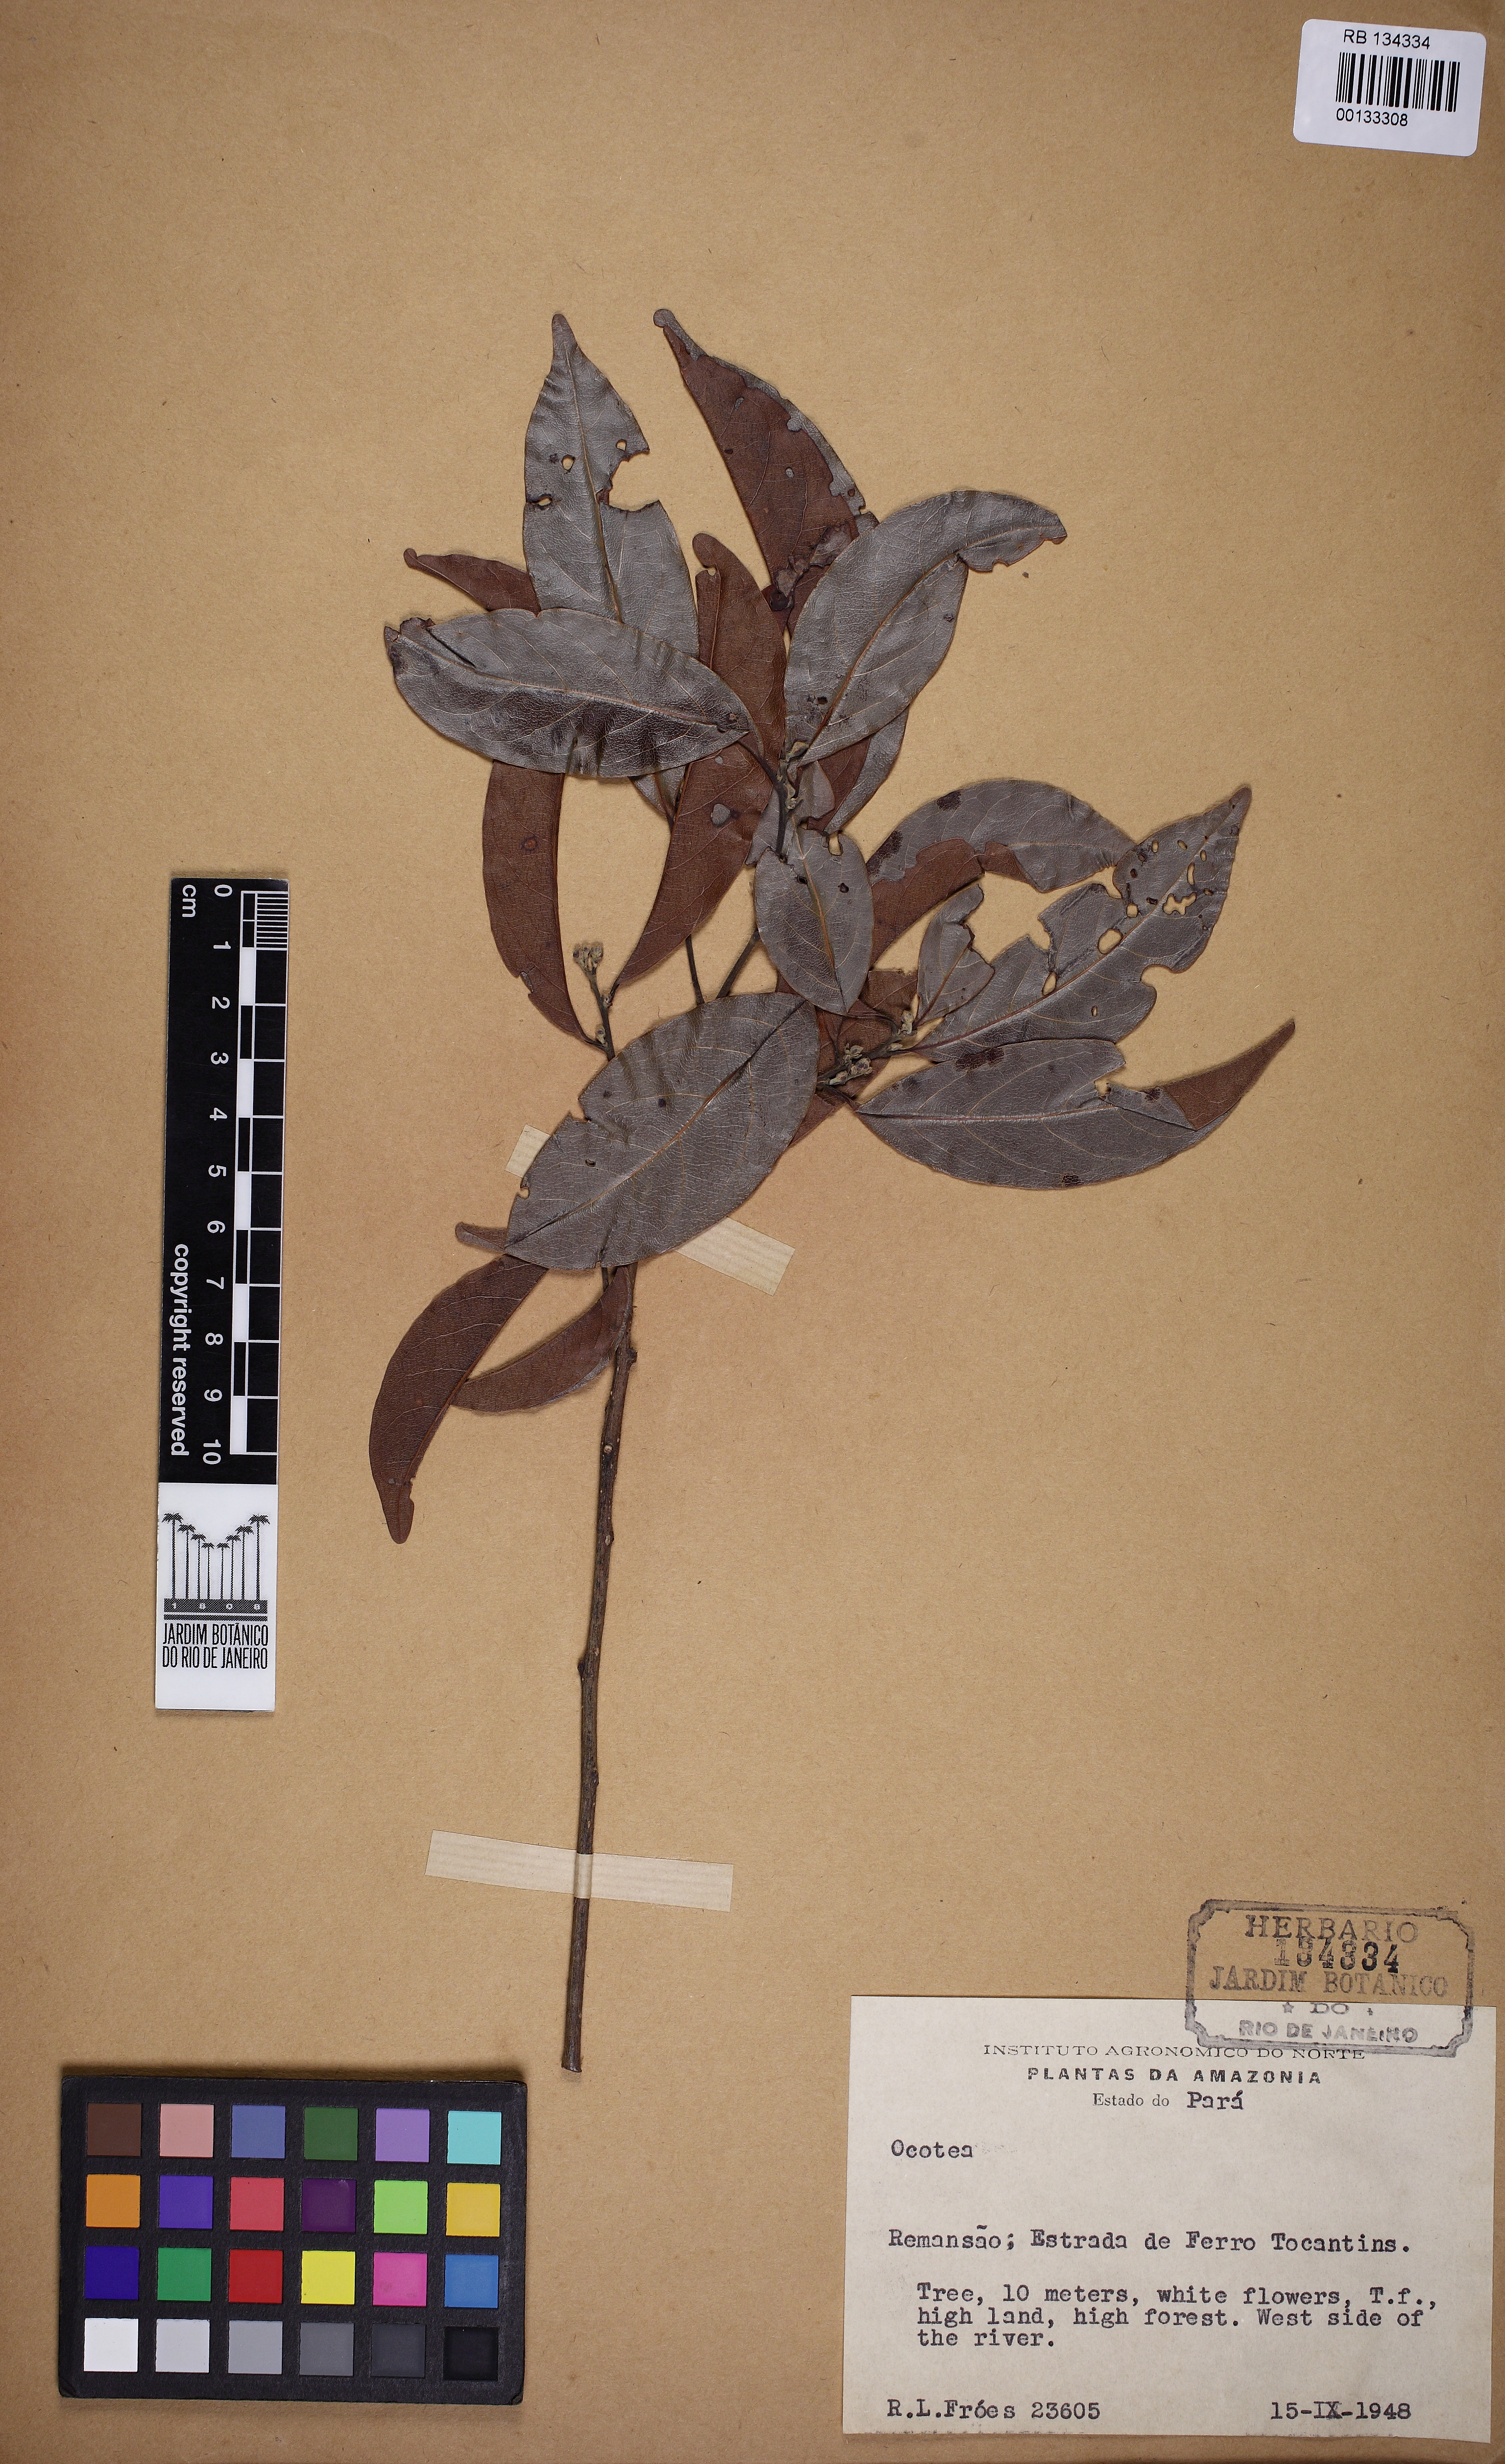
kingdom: Plantae
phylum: Tracheophyta
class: Magnoliopsida
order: Laurales
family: Lauraceae
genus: Ocotea
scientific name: Ocotea
